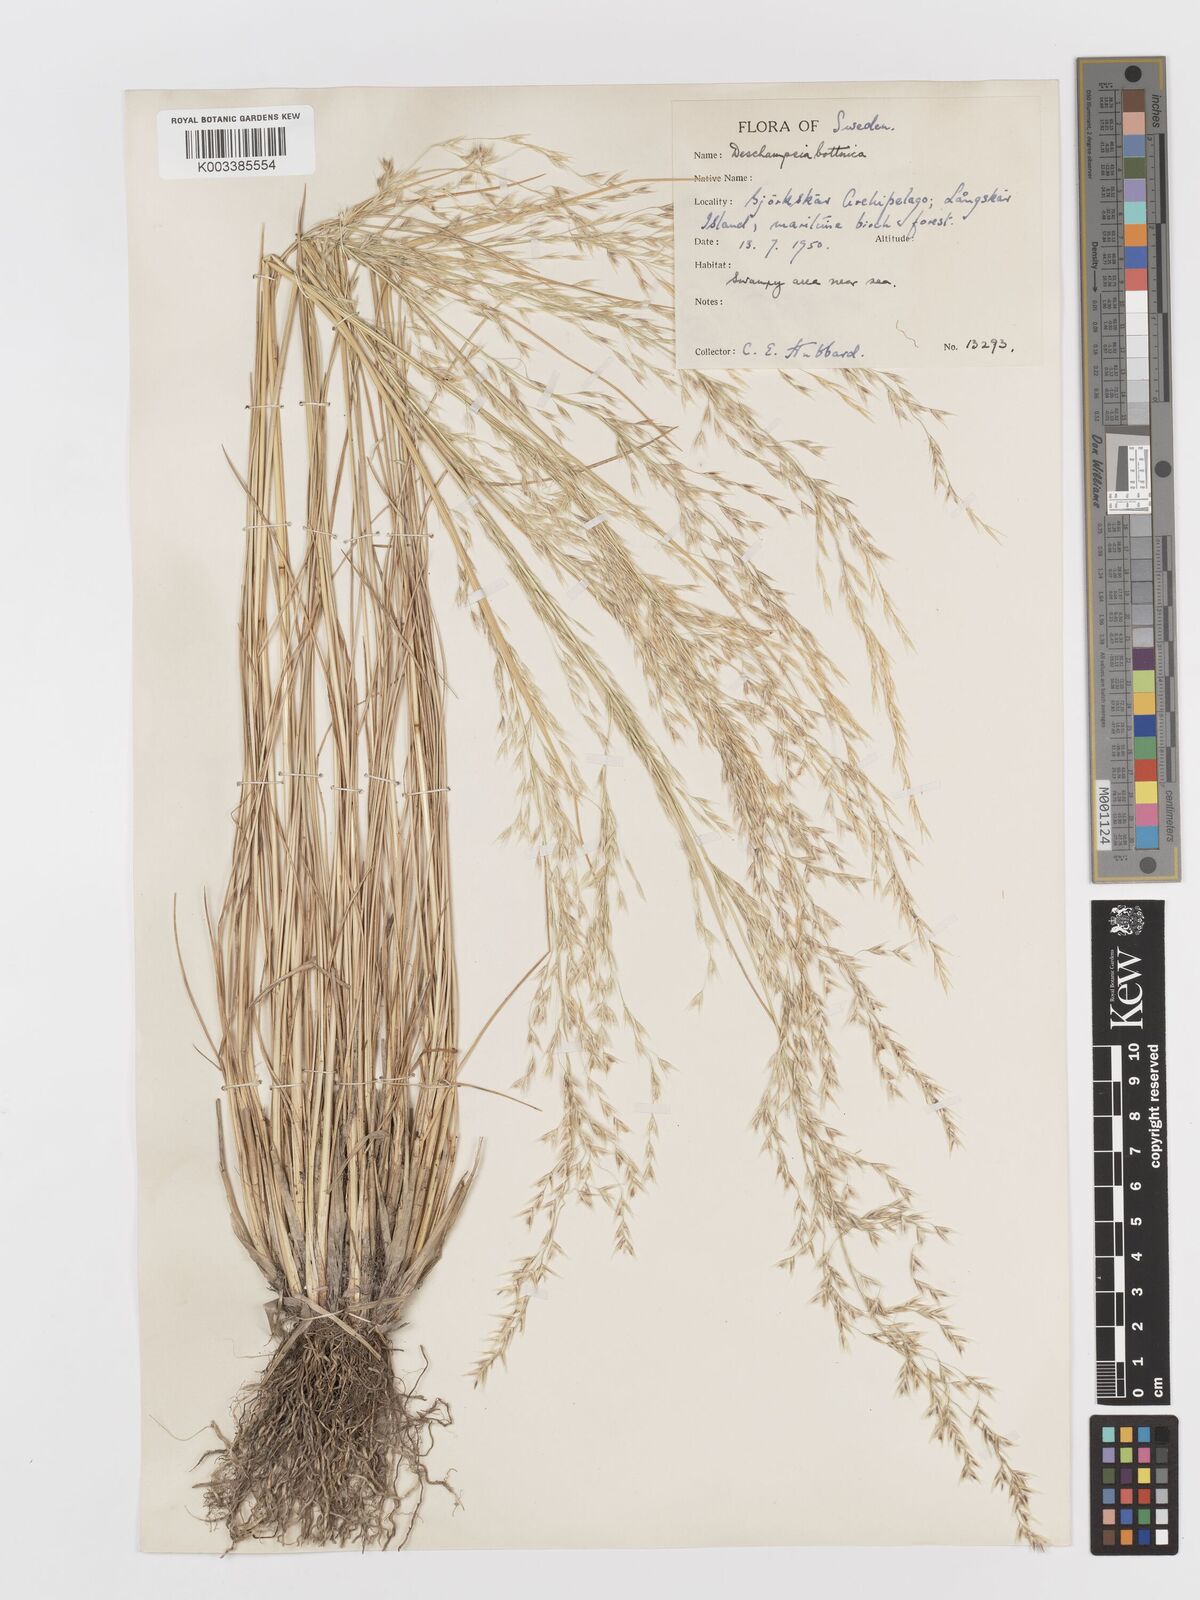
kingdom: Plantae
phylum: Tracheophyta
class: Liliopsida
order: Poales
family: Poaceae
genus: Deschampsia
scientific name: Deschampsia cespitosa
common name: Tufted hair-grass
